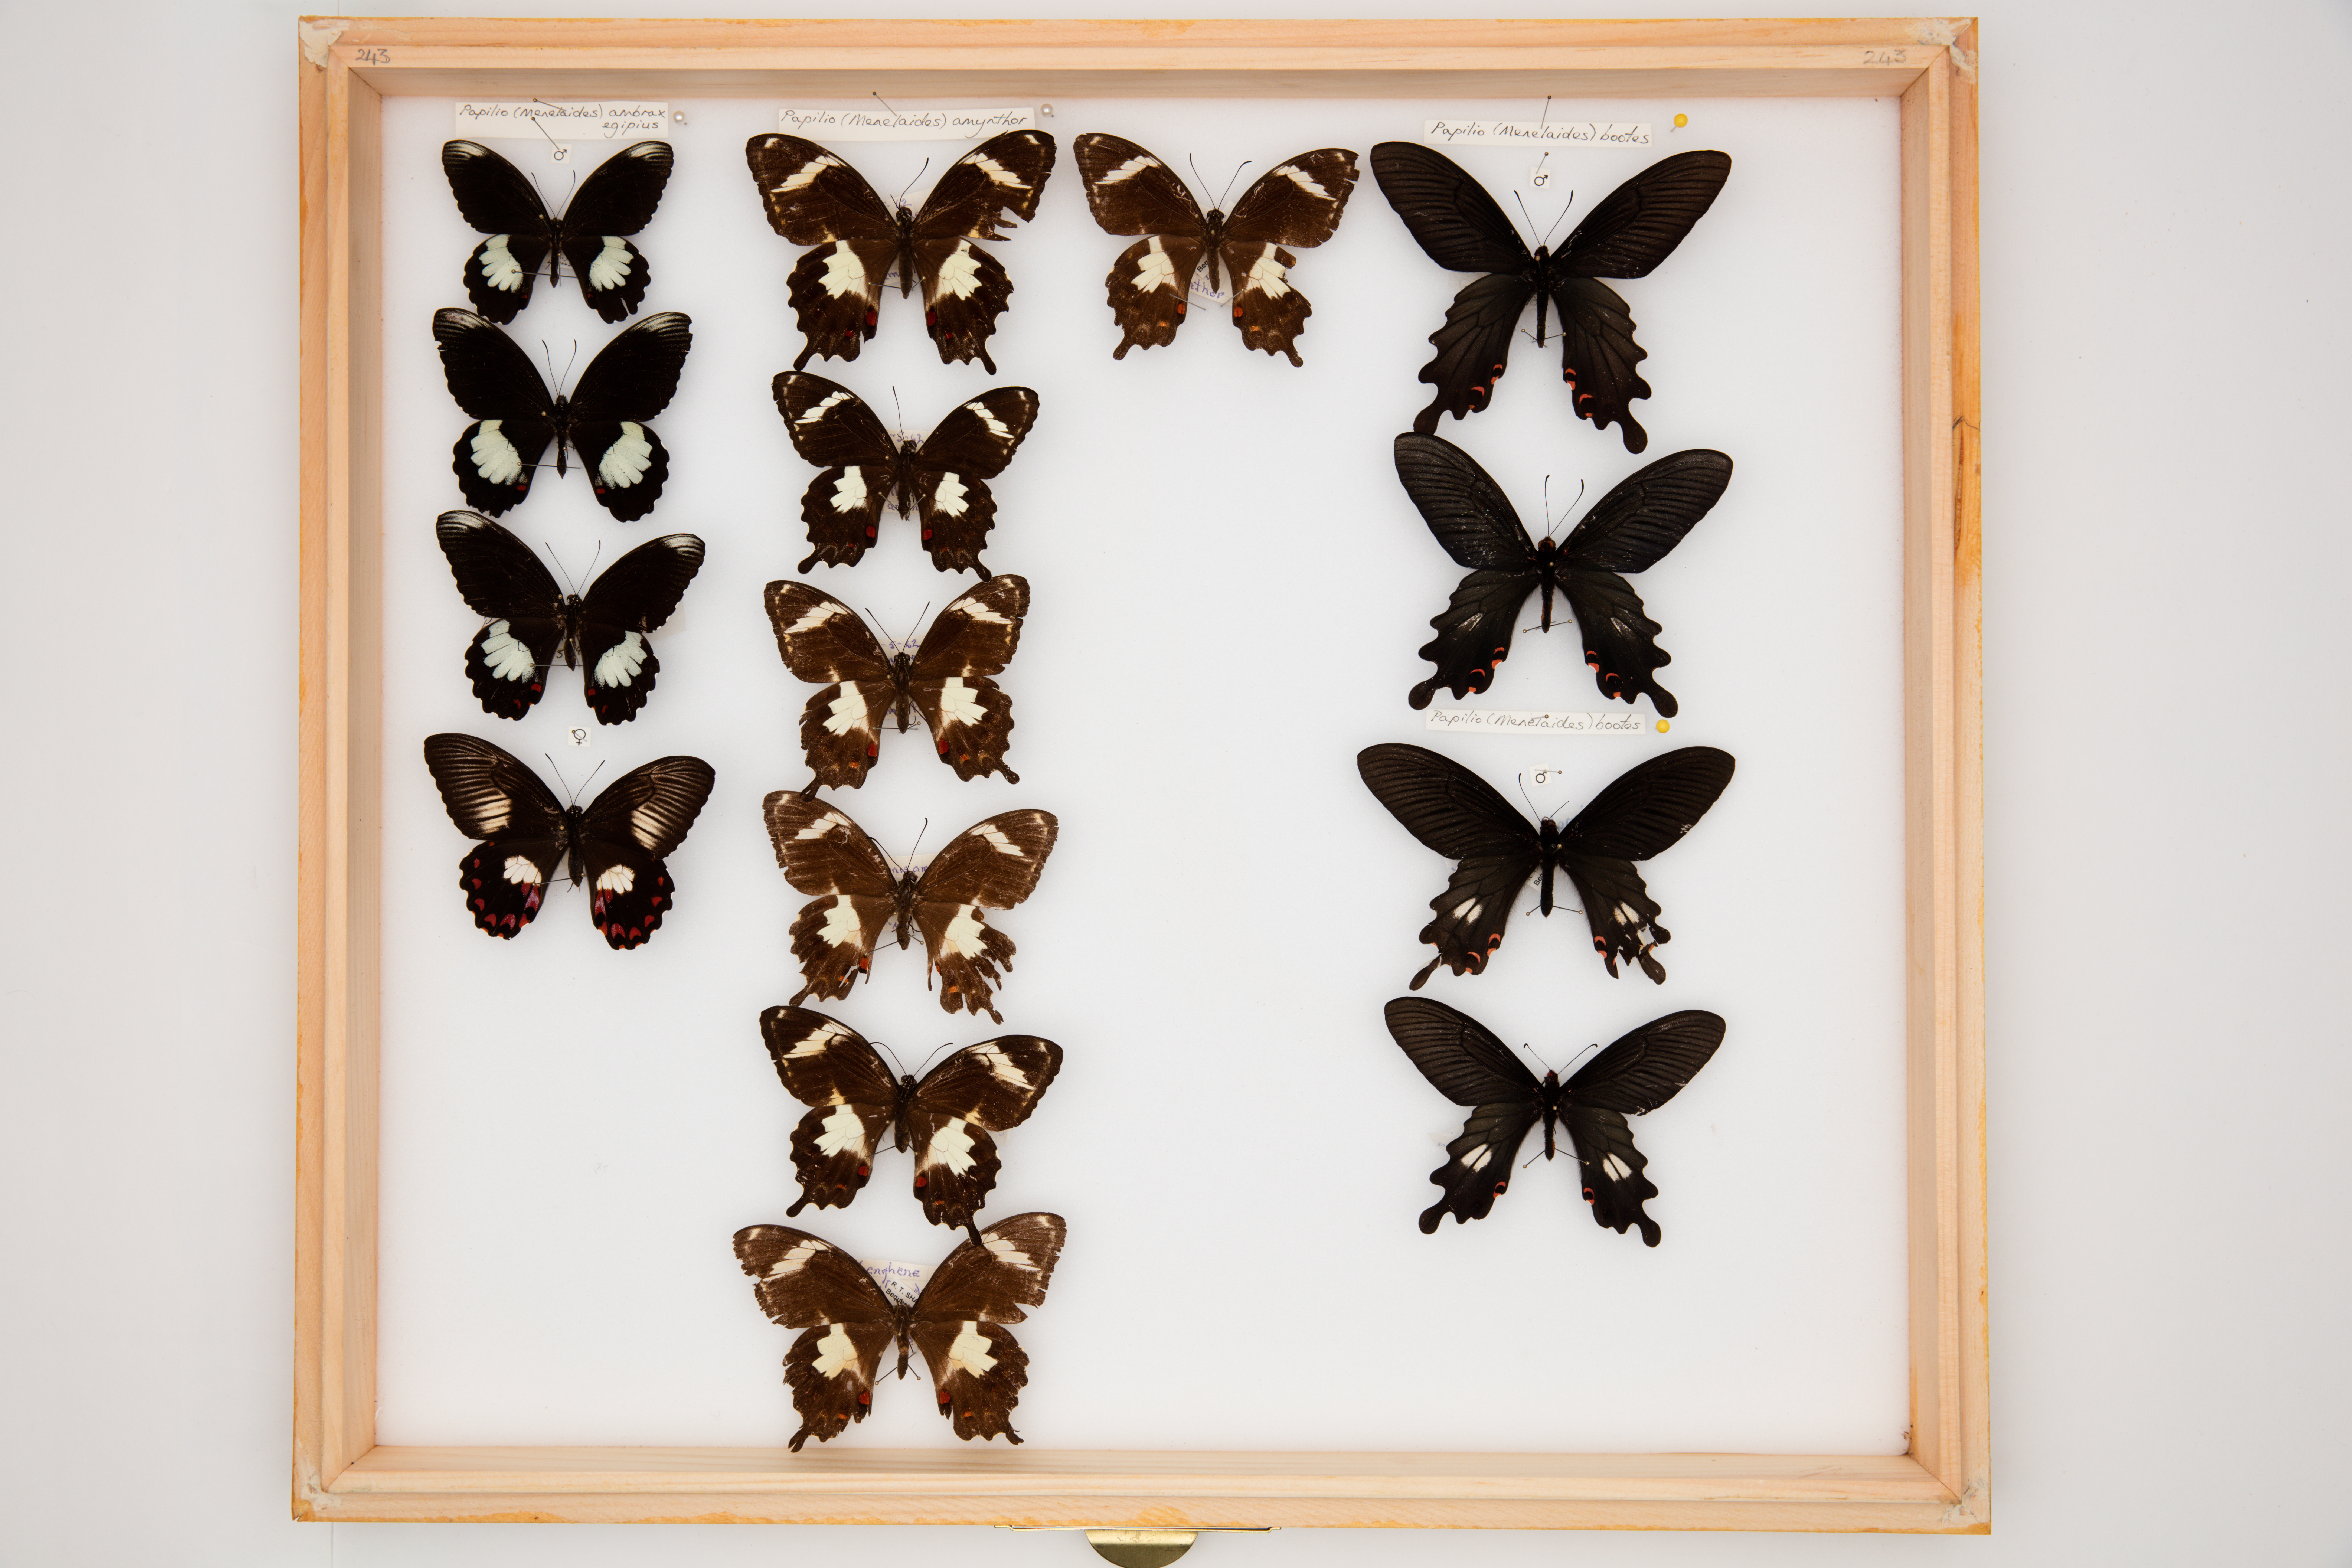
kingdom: Animalia
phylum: Arthropoda
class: Insecta
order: Lepidoptera
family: Papilionidae
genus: Papilio
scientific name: Papilio ambrax
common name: Ambrax butterfly
